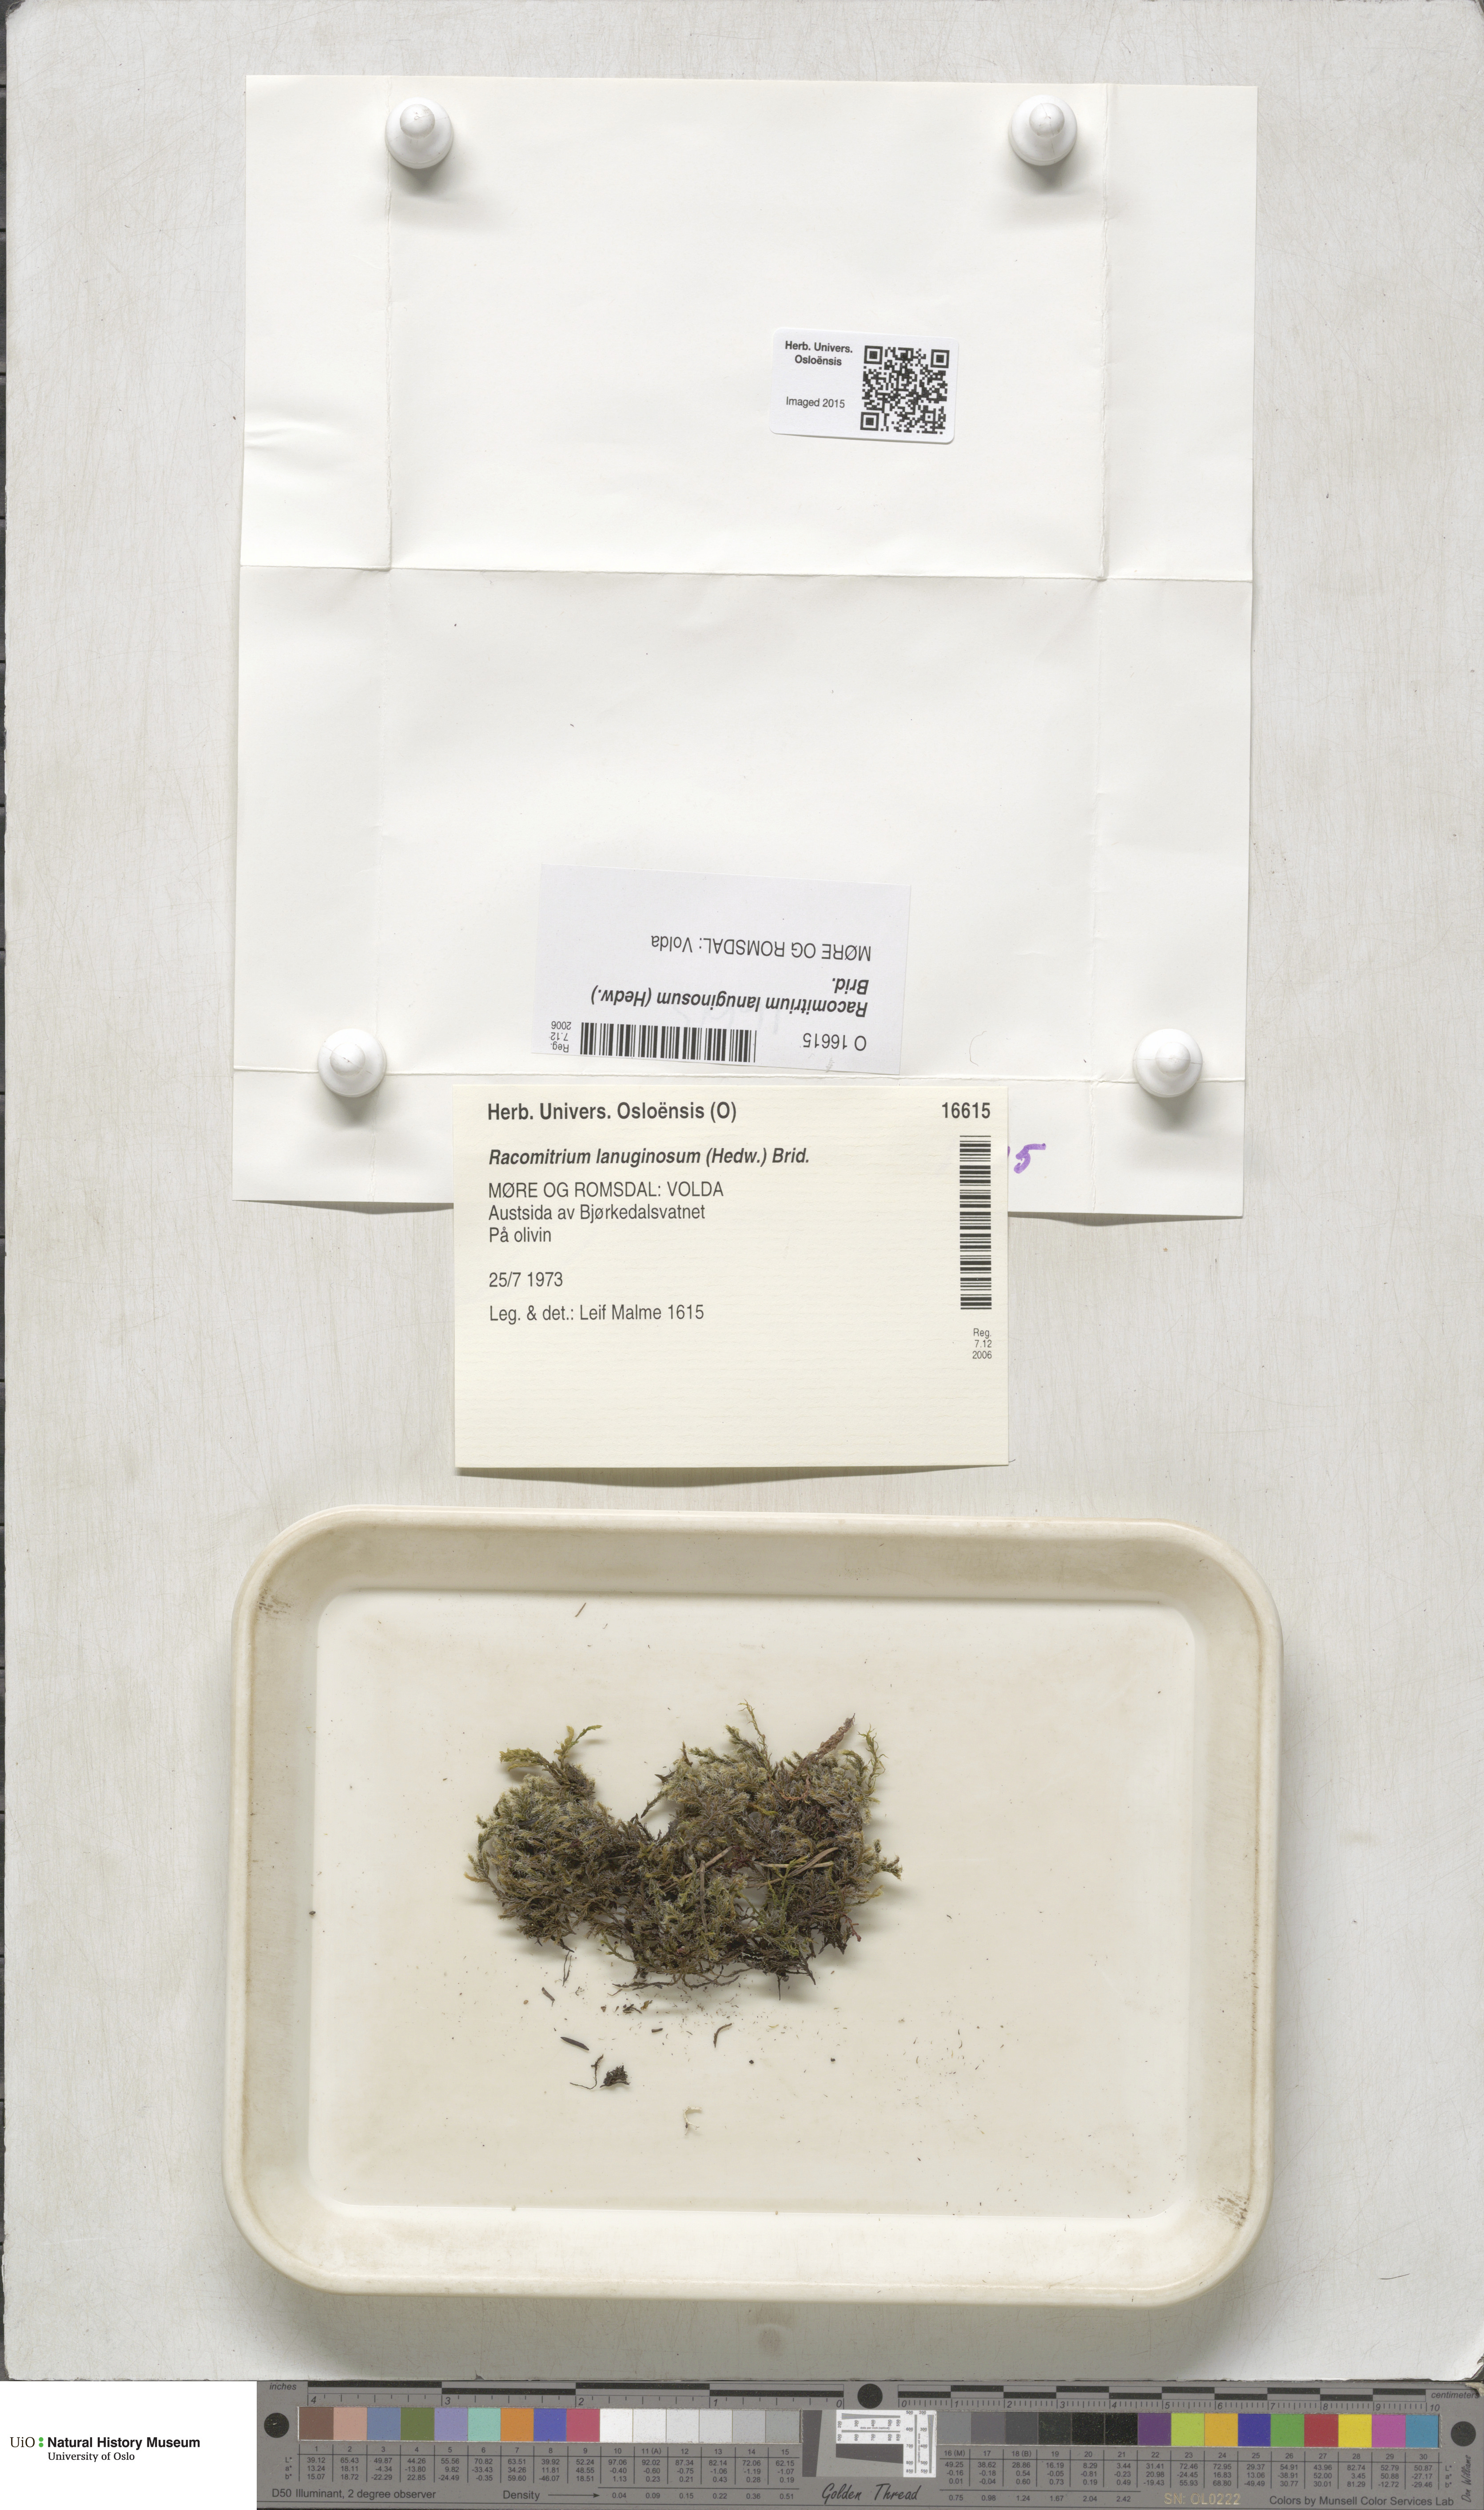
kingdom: Plantae
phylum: Bryophyta
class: Bryopsida
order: Grimmiales
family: Grimmiaceae
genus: Racomitrium
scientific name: Racomitrium lanuginosum
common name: Hoary rock moss
